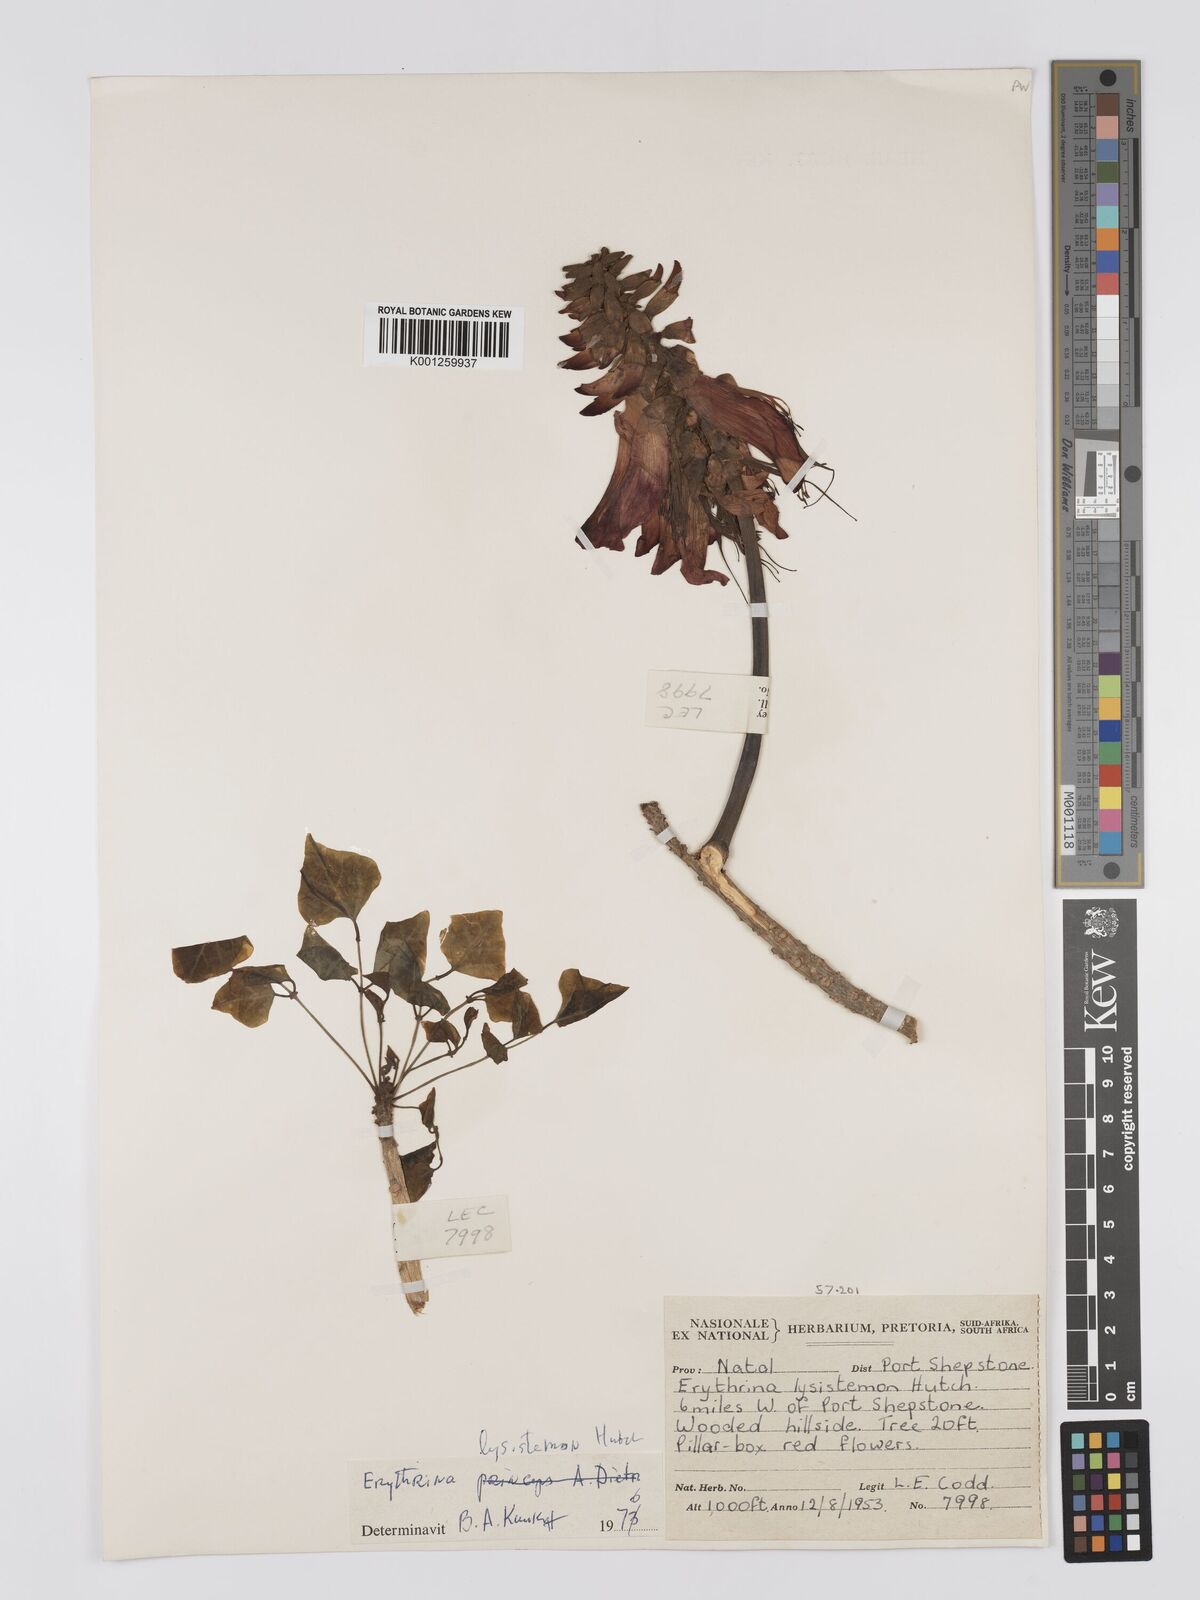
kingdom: Plantae
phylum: Tracheophyta
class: Magnoliopsida
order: Fabales
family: Fabaceae
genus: Erythrina
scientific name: Erythrina lysistemon
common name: Common coral tree
